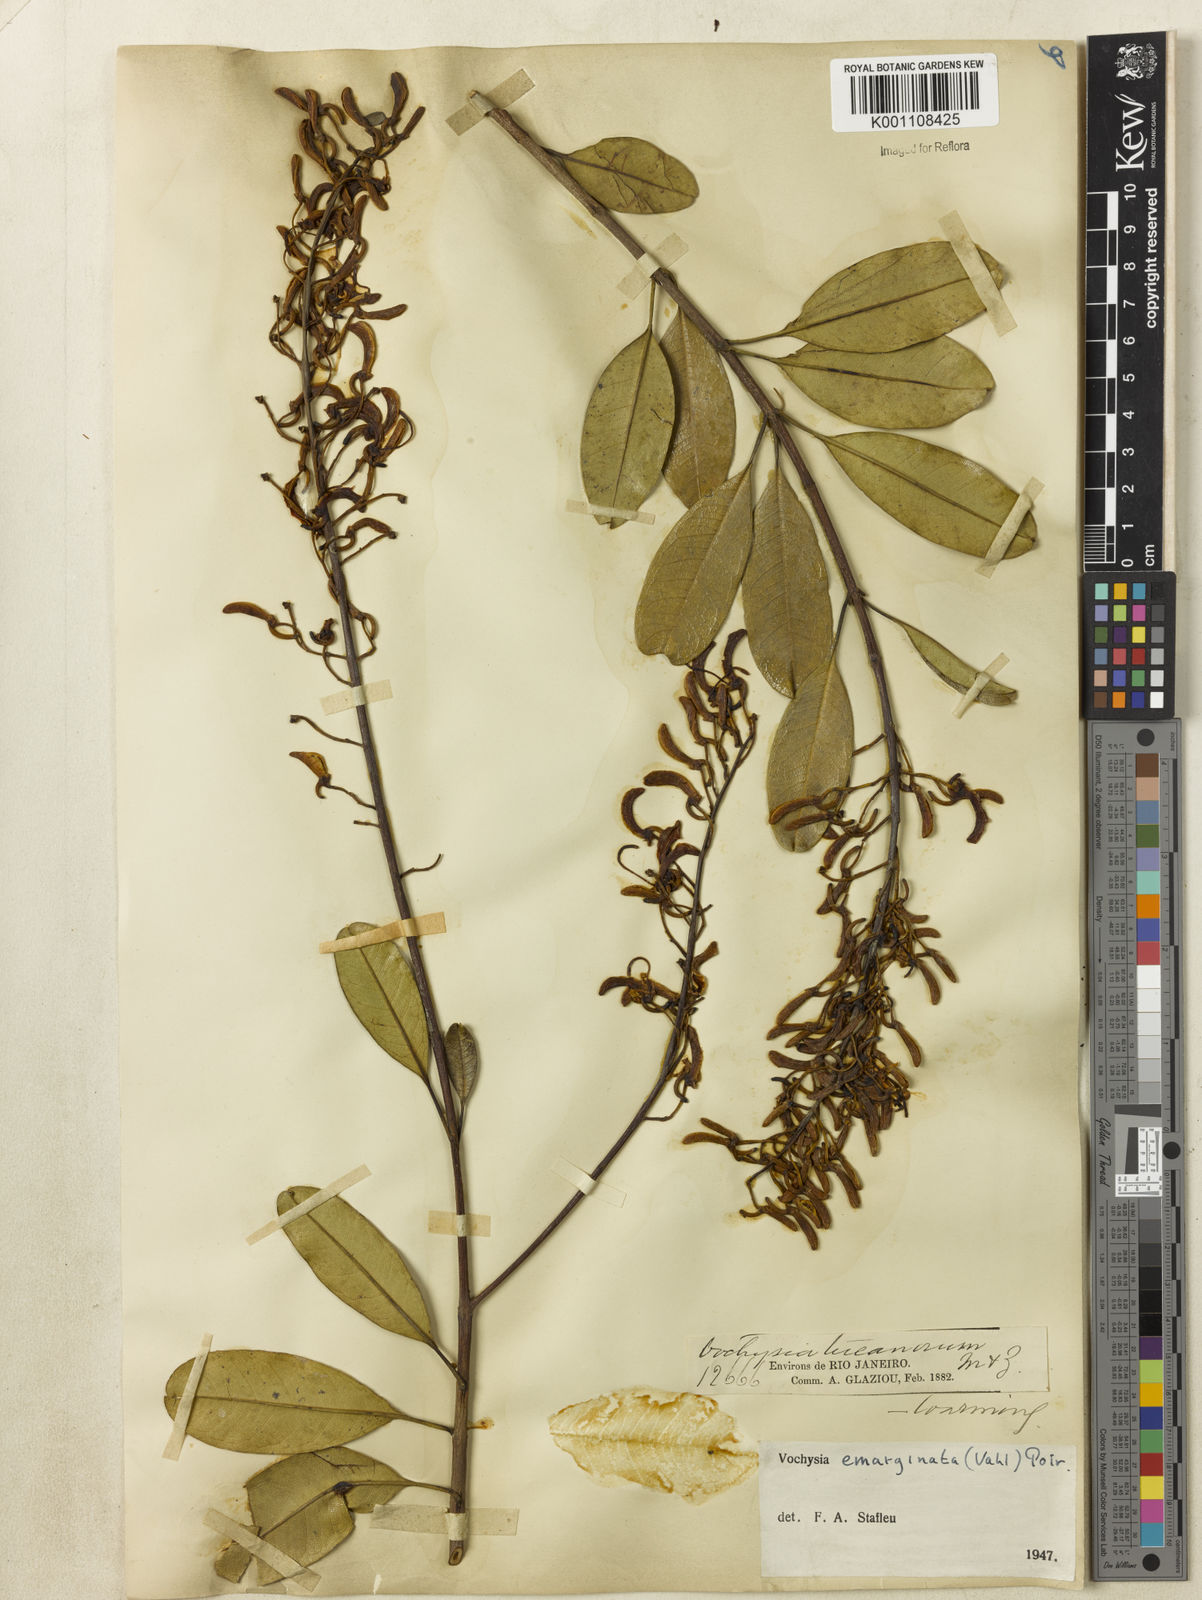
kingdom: Plantae
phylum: Tracheophyta
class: Magnoliopsida
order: Myrtales
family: Vochysiaceae
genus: Vochysia
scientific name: Vochysia
